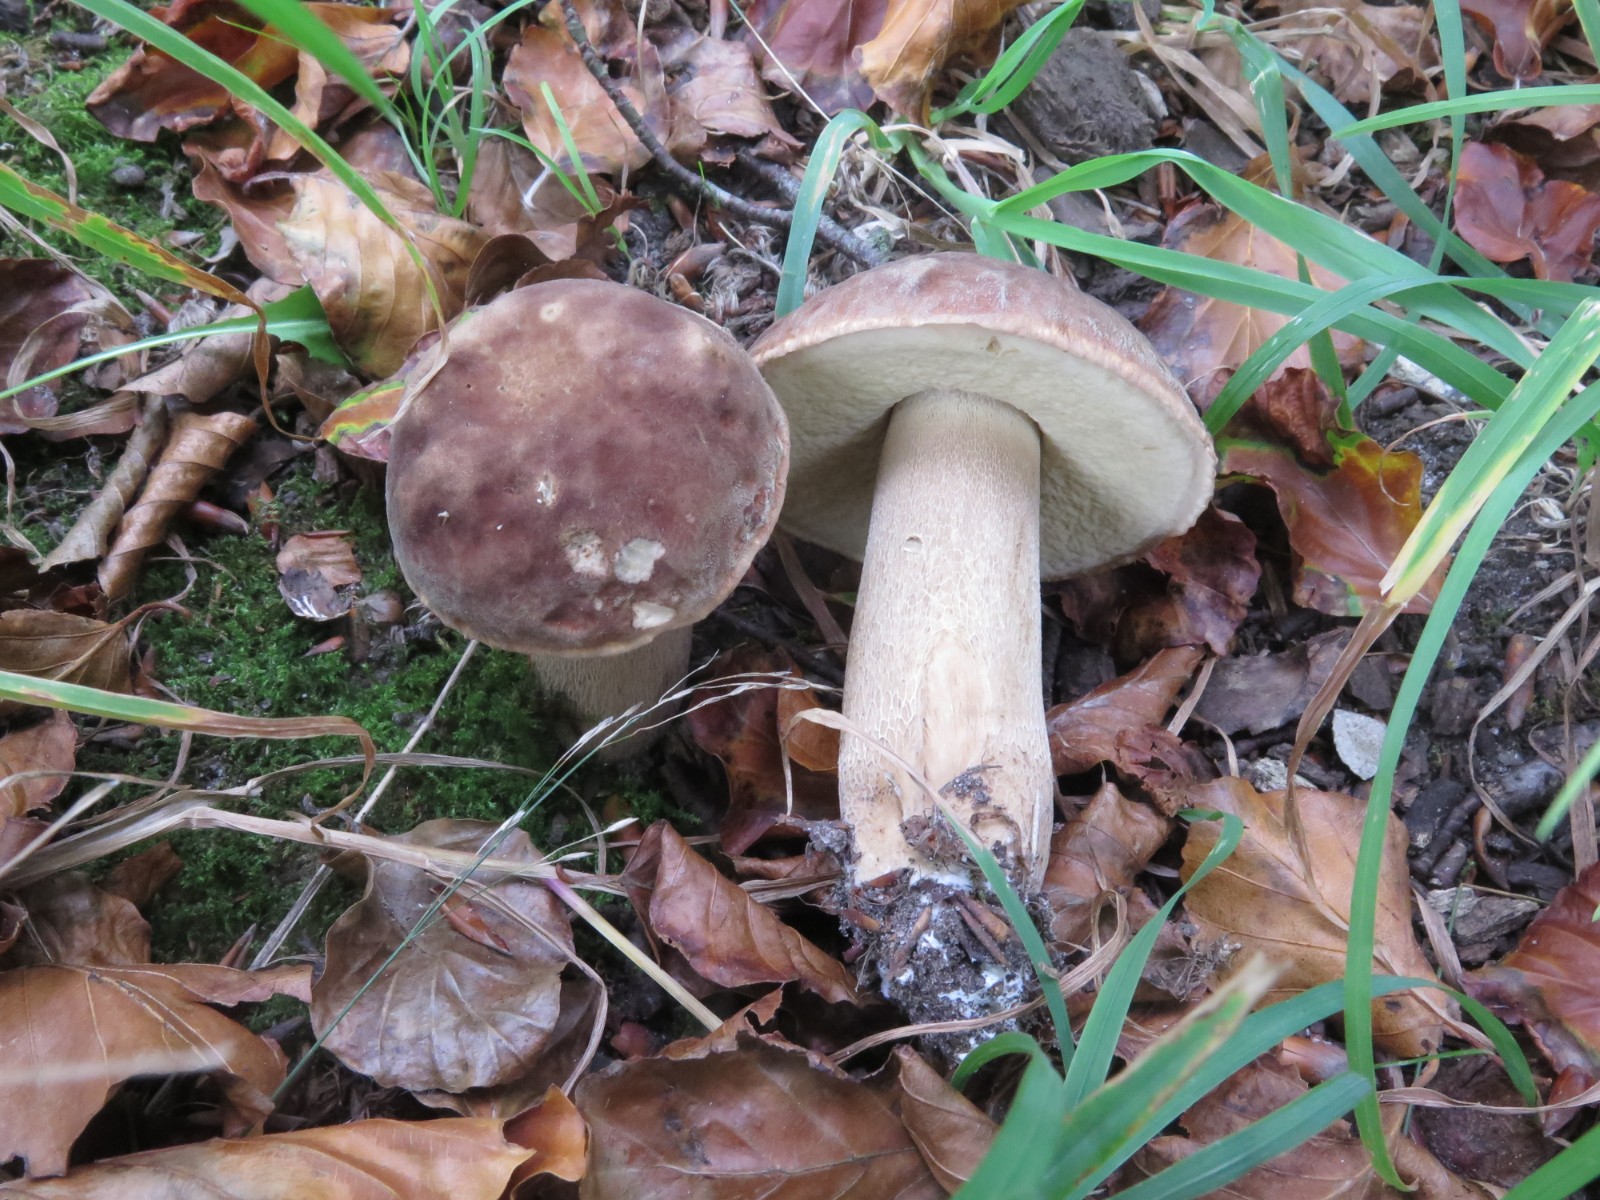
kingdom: Fungi
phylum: Basidiomycota
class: Agaricomycetes
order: Boletales
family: Boletaceae
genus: Boletus
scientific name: Boletus reticulatus
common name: sommer-rørhat
